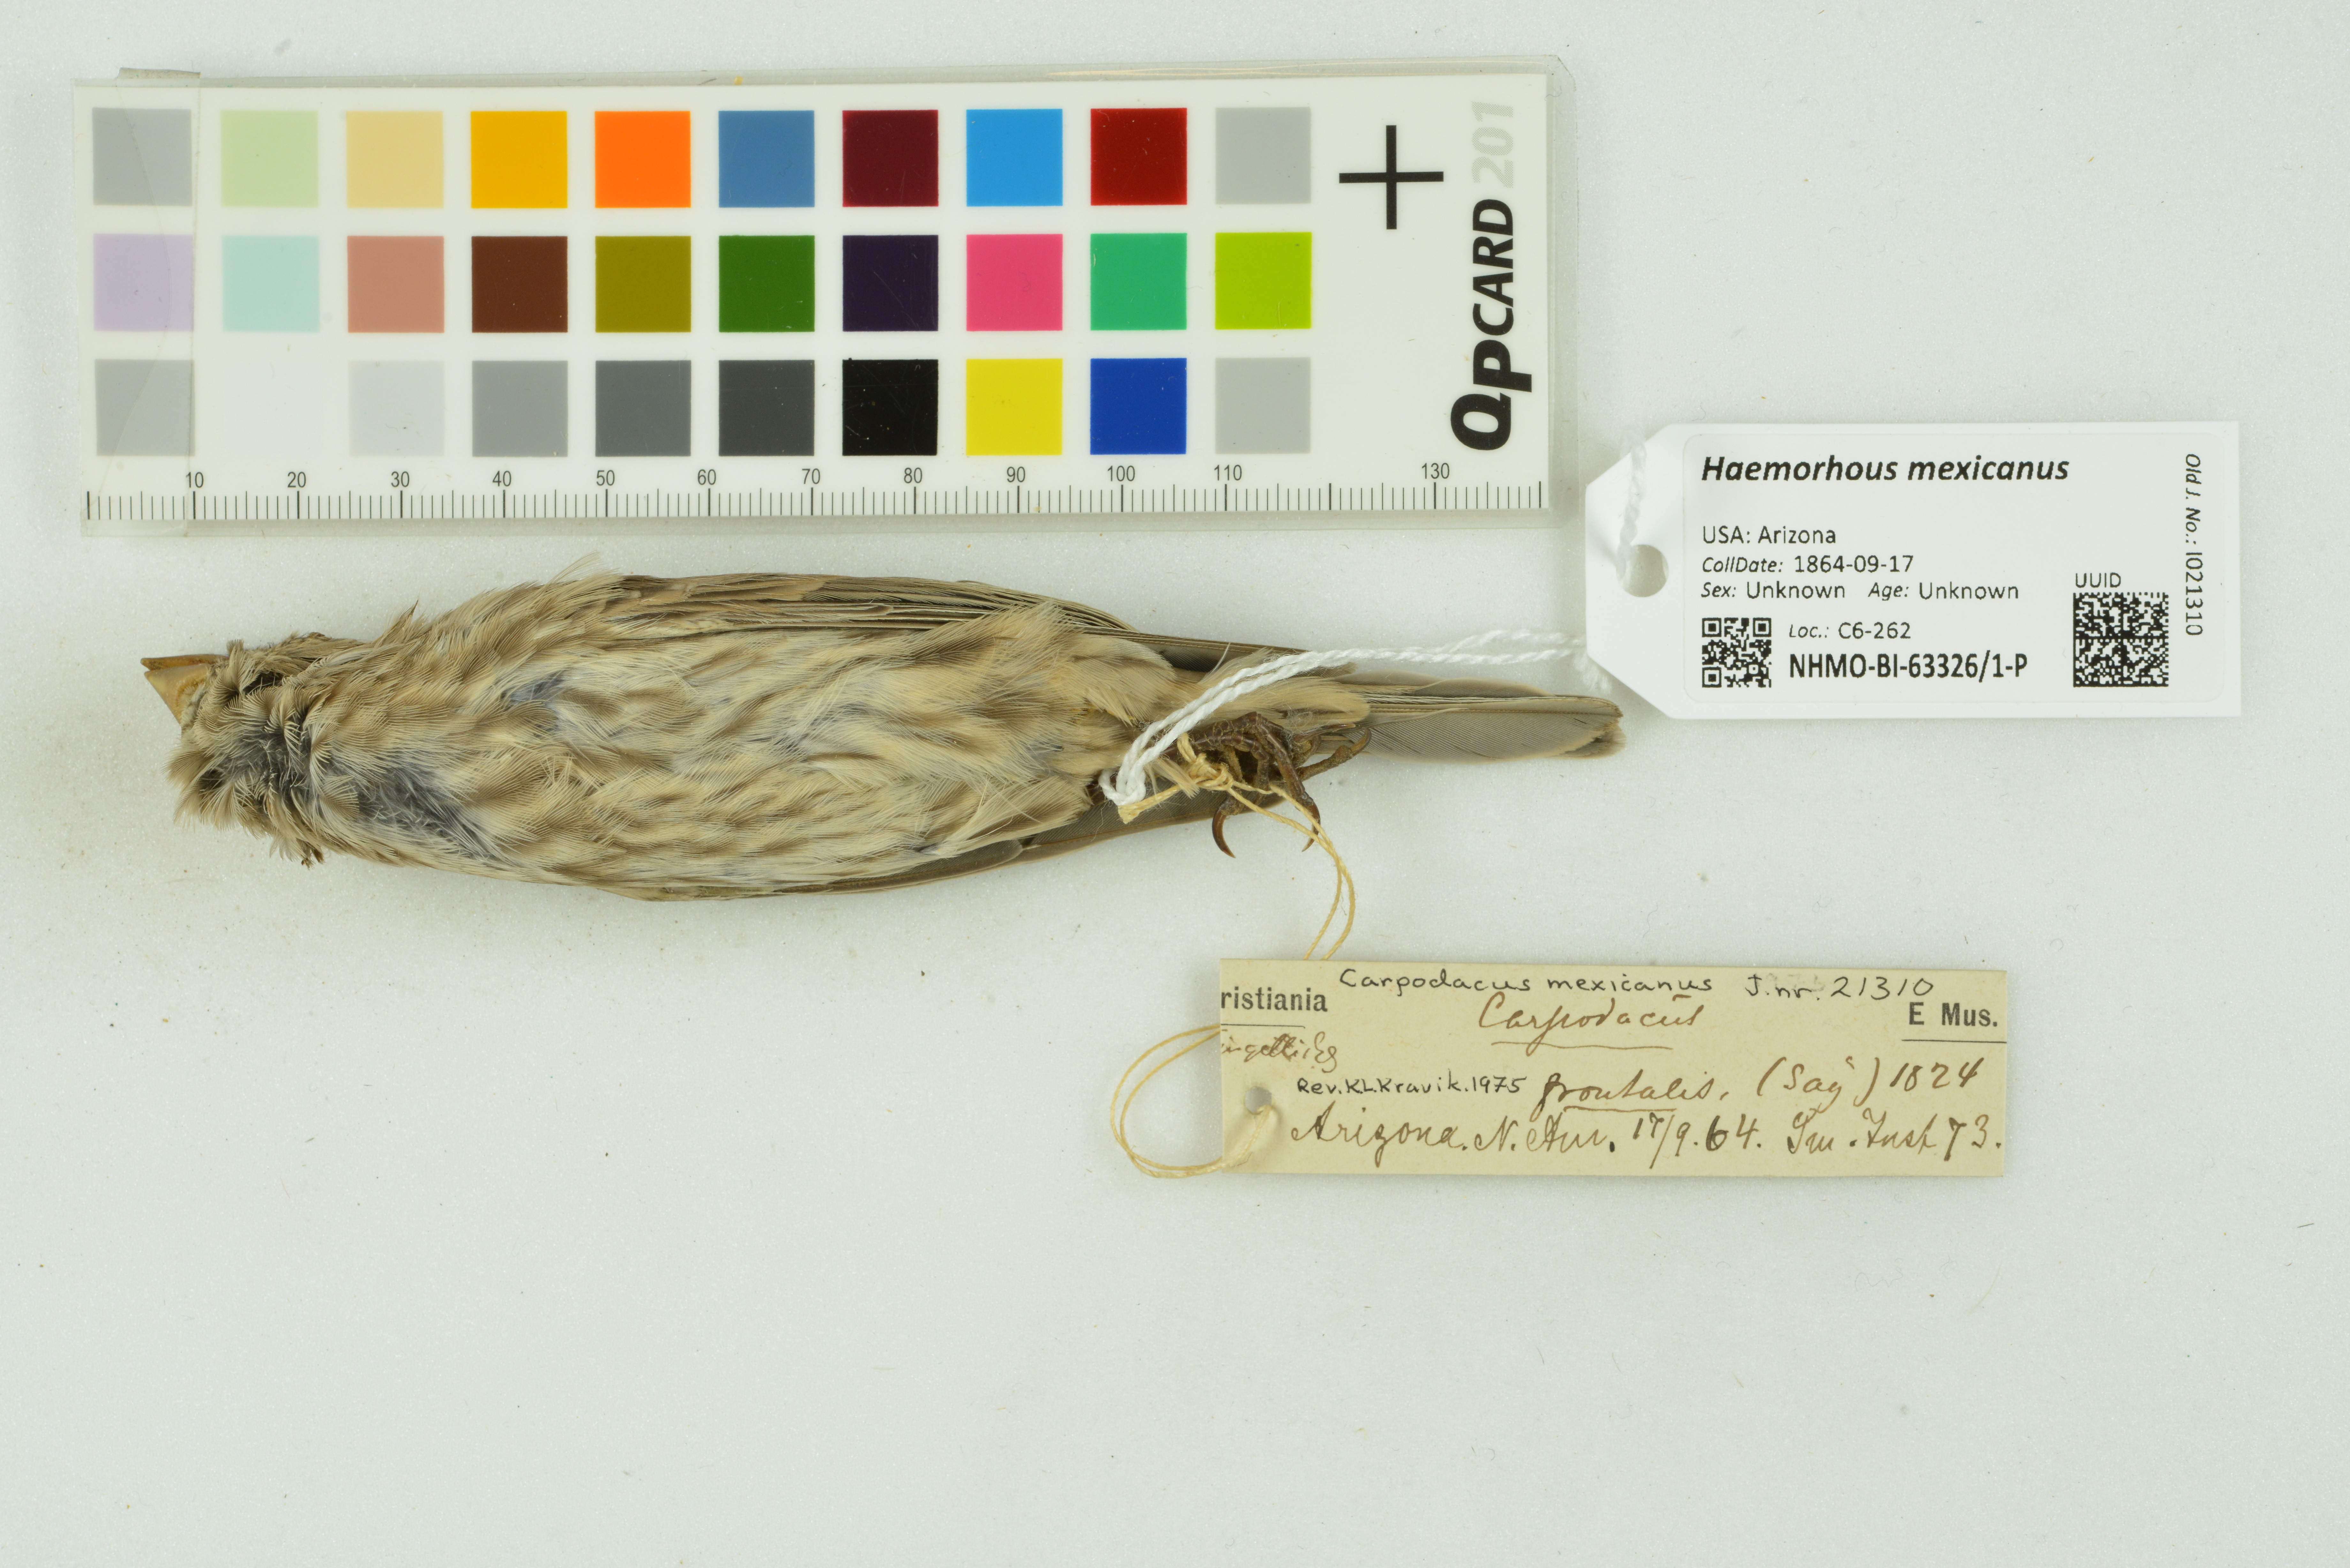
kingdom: Animalia
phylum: Chordata
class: Aves
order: Passeriformes
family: Fringillidae
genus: Haemorhous
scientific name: Haemorhous mexicanus
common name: House finch
